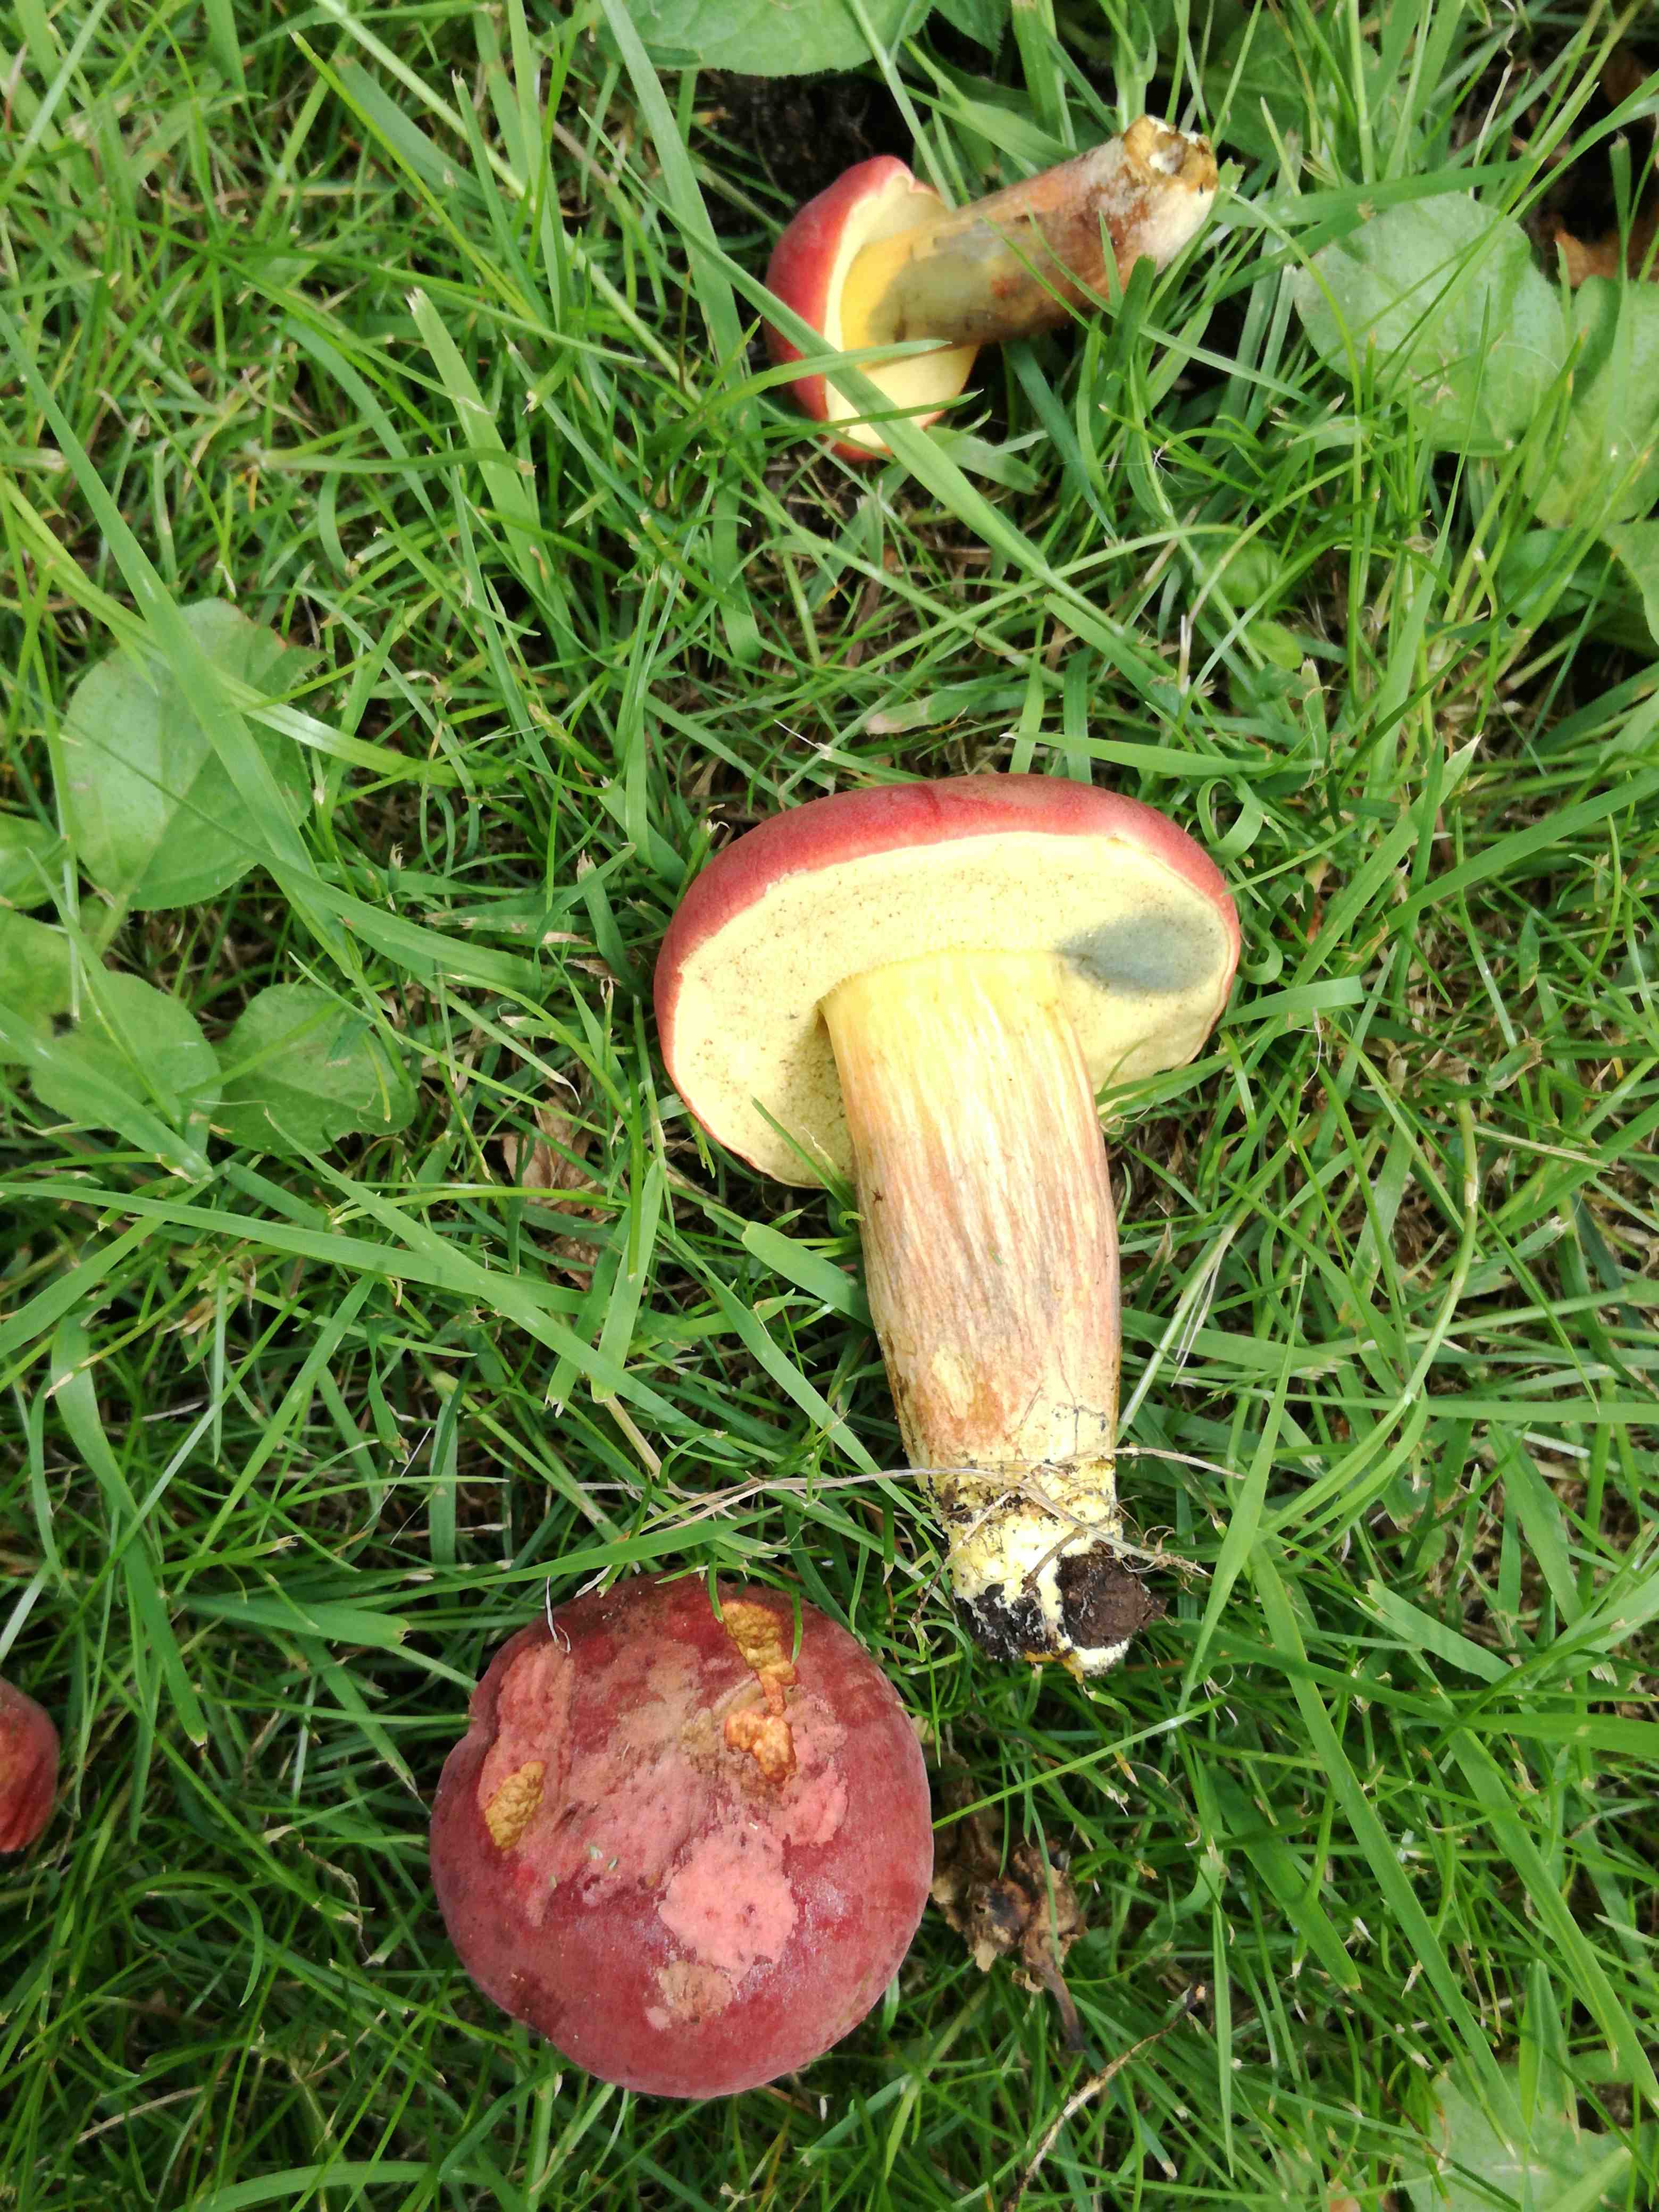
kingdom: Fungi
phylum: Basidiomycota
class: Agaricomycetes
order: Boletales
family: Boletaceae
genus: Hortiboletus
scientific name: Hortiboletus rubellus
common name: blodrød rørhat
